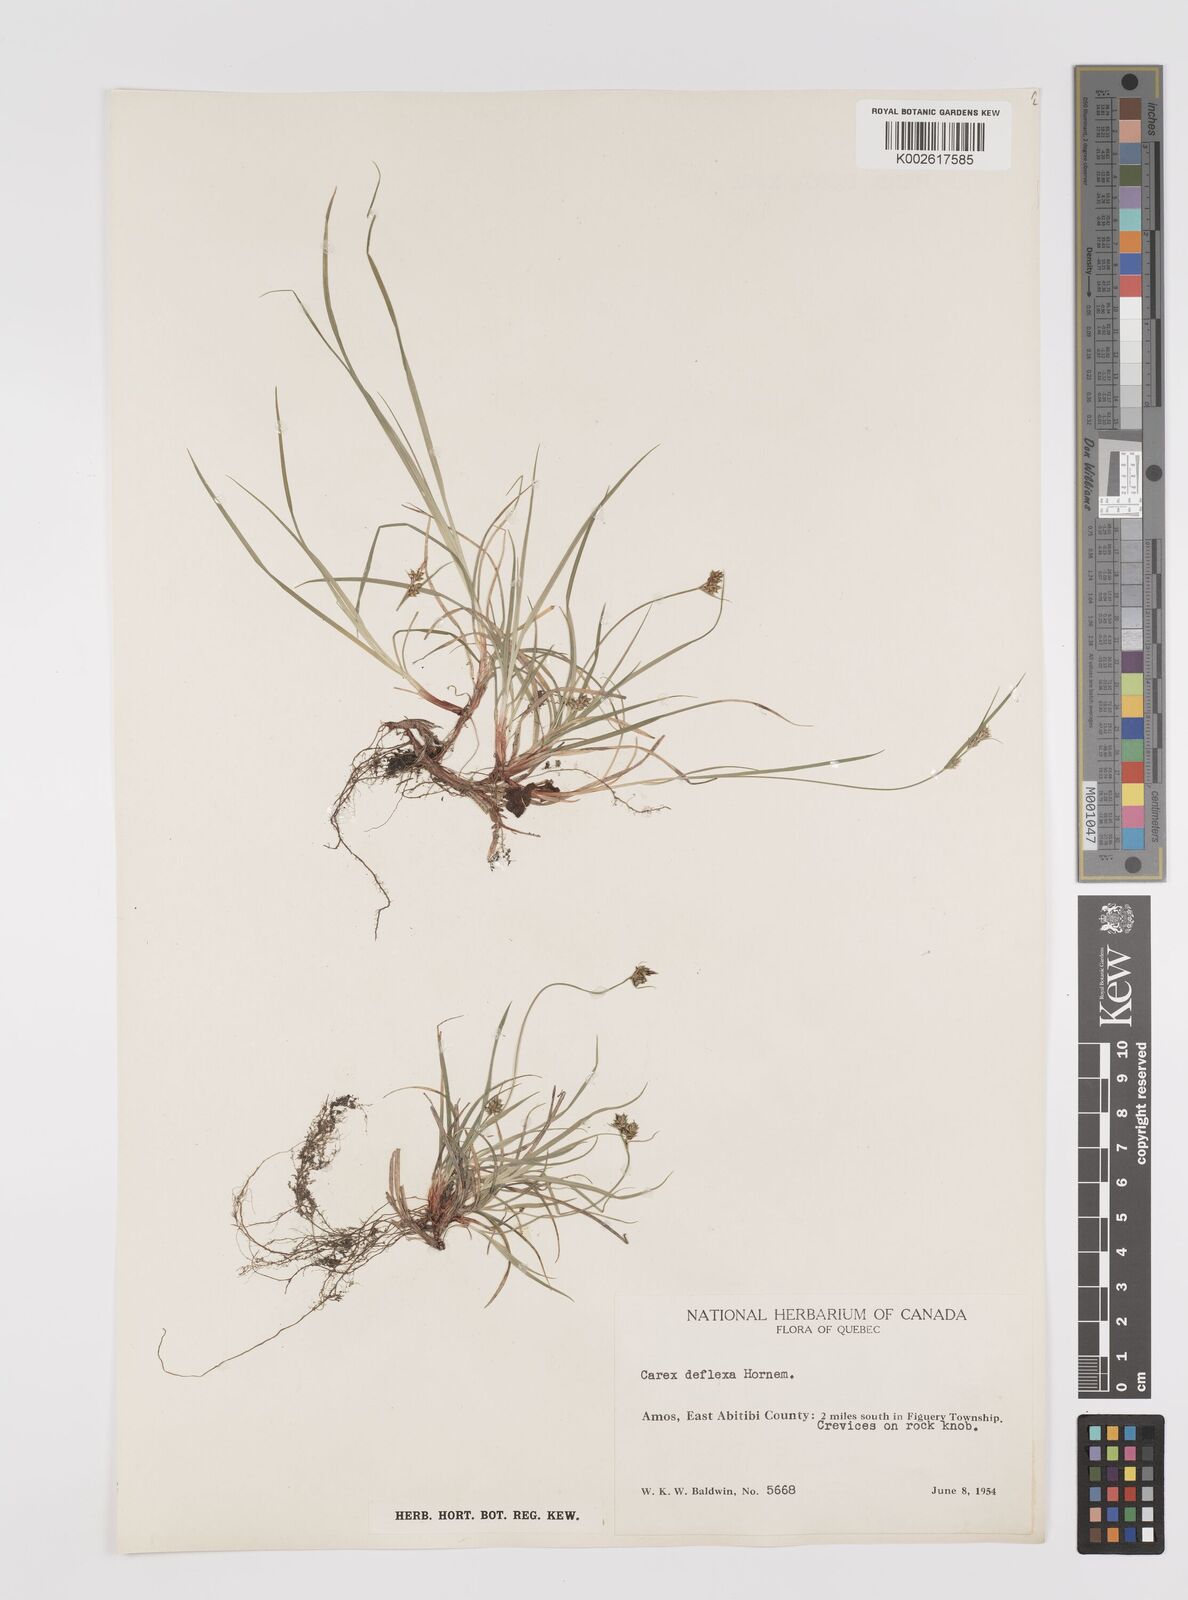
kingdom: Plantae
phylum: Tracheophyta
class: Liliopsida
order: Poales
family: Cyperaceae
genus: Carex
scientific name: Carex deflexa
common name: Bent northern sedge
